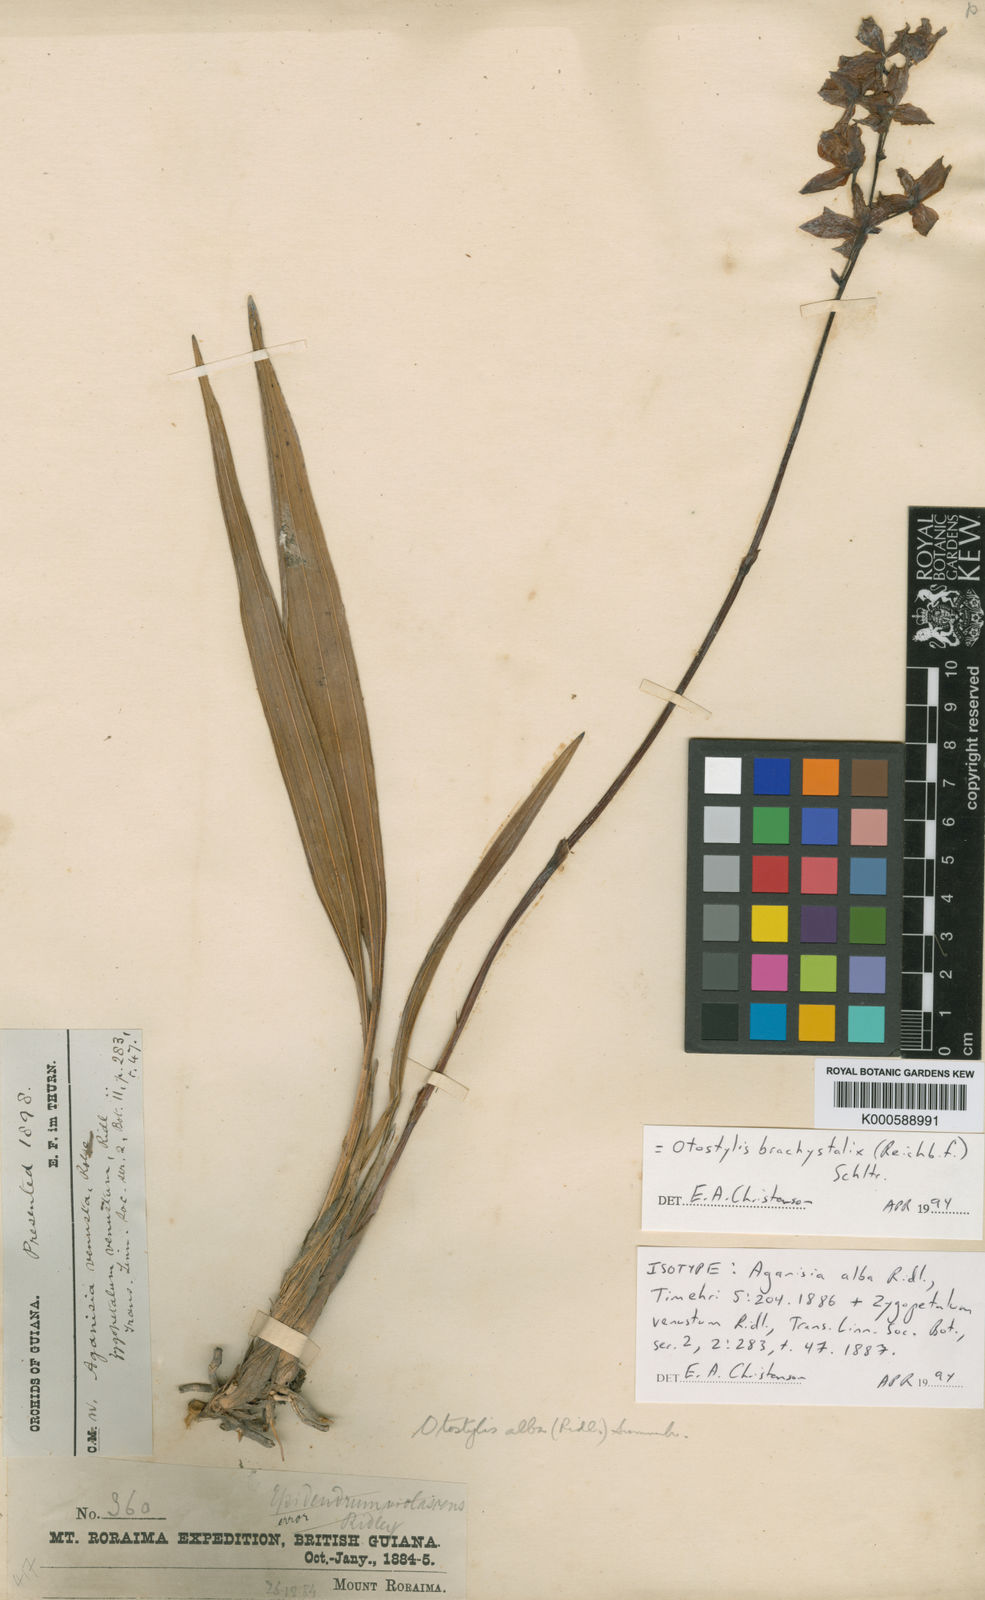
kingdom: Plantae
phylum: Tracheophyta
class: Liliopsida
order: Asparagales
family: Orchidaceae
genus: Otostylis
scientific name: Otostylis brachystalix
